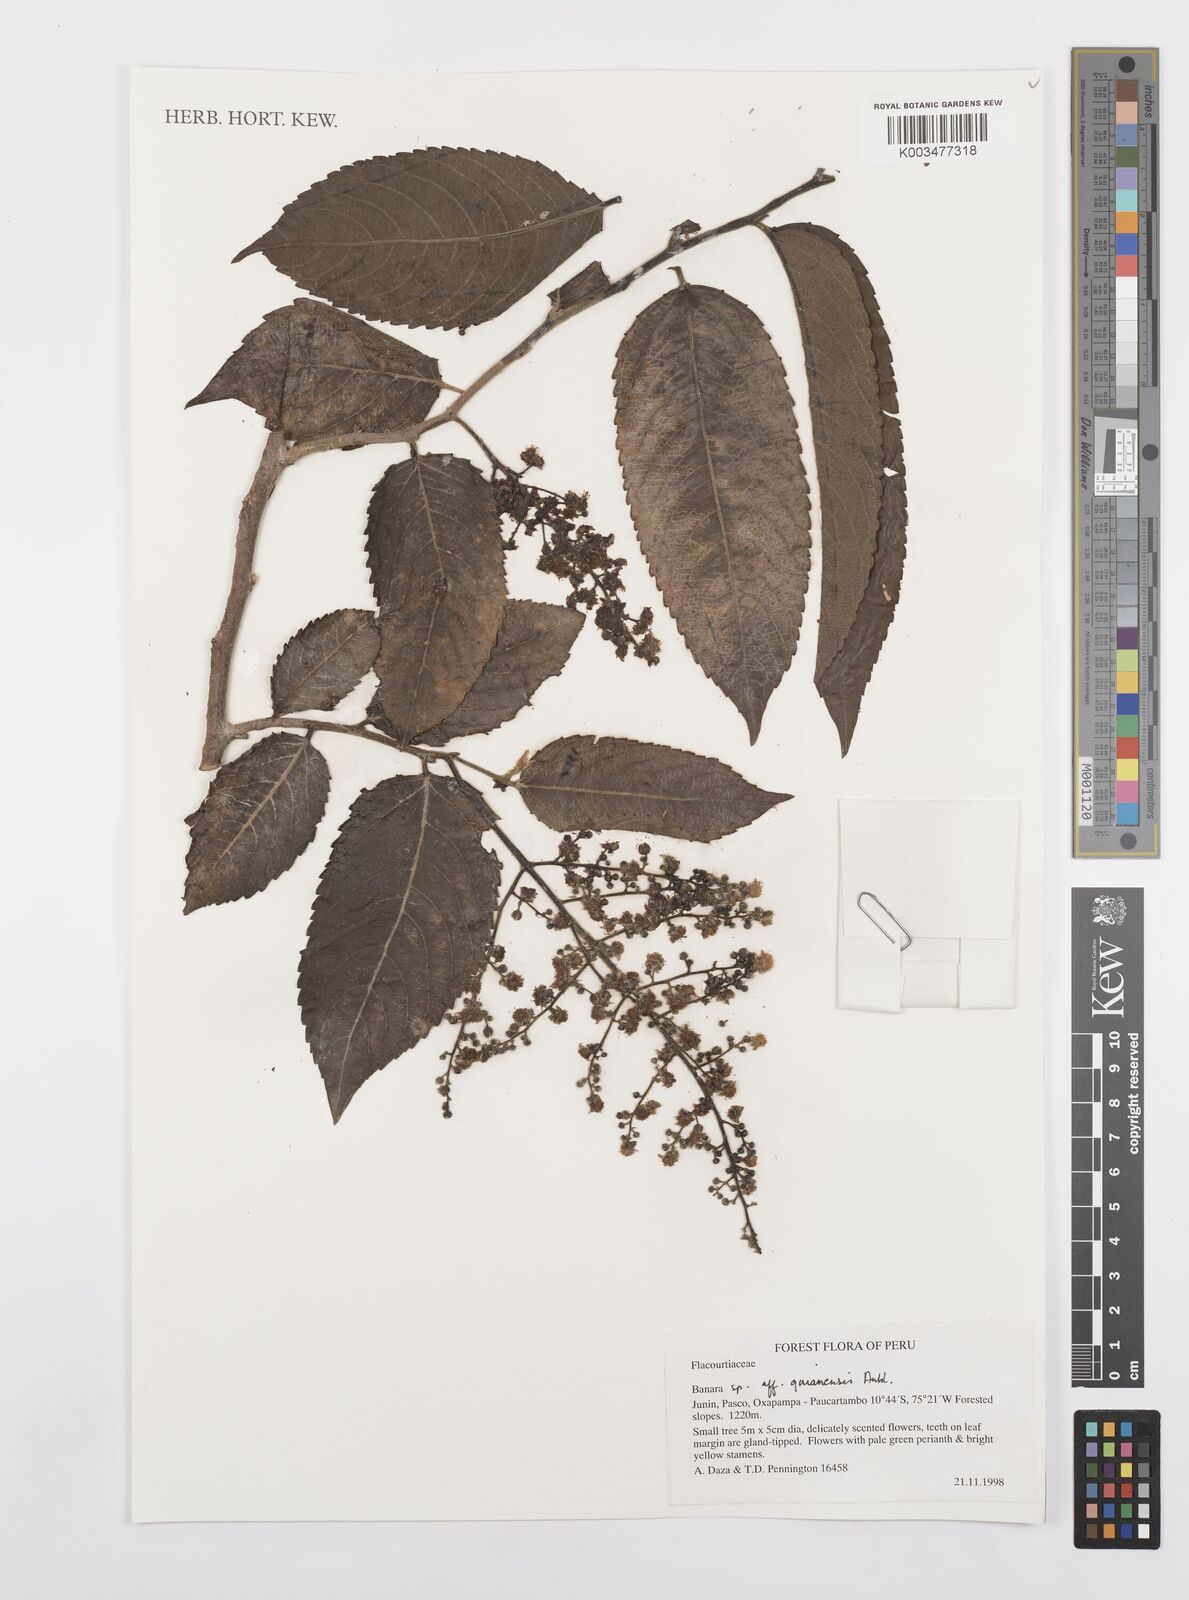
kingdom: Plantae
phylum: Tracheophyta
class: Magnoliopsida
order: Malpighiales
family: Salicaceae
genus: Banara
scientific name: Banara guianensis
